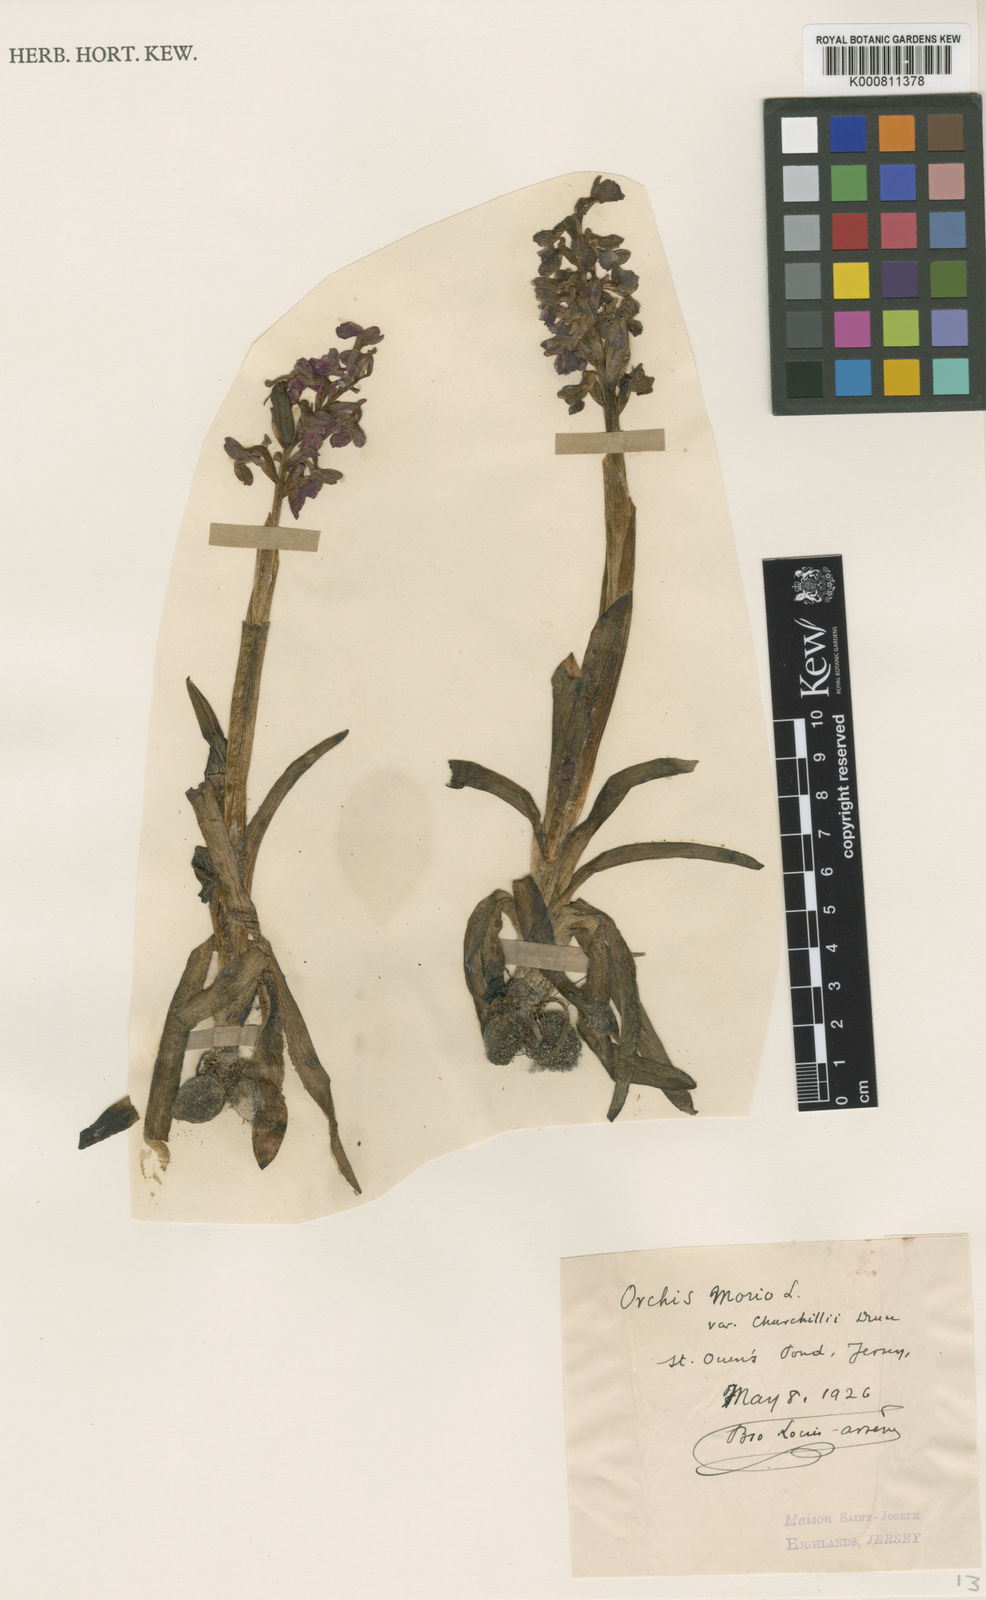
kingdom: Plantae
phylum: Tracheophyta
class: Liliopsida
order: Asparagales
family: Orchidaceae
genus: Anacamptis
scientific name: Anacamptis morio
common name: Green-winged orchid
